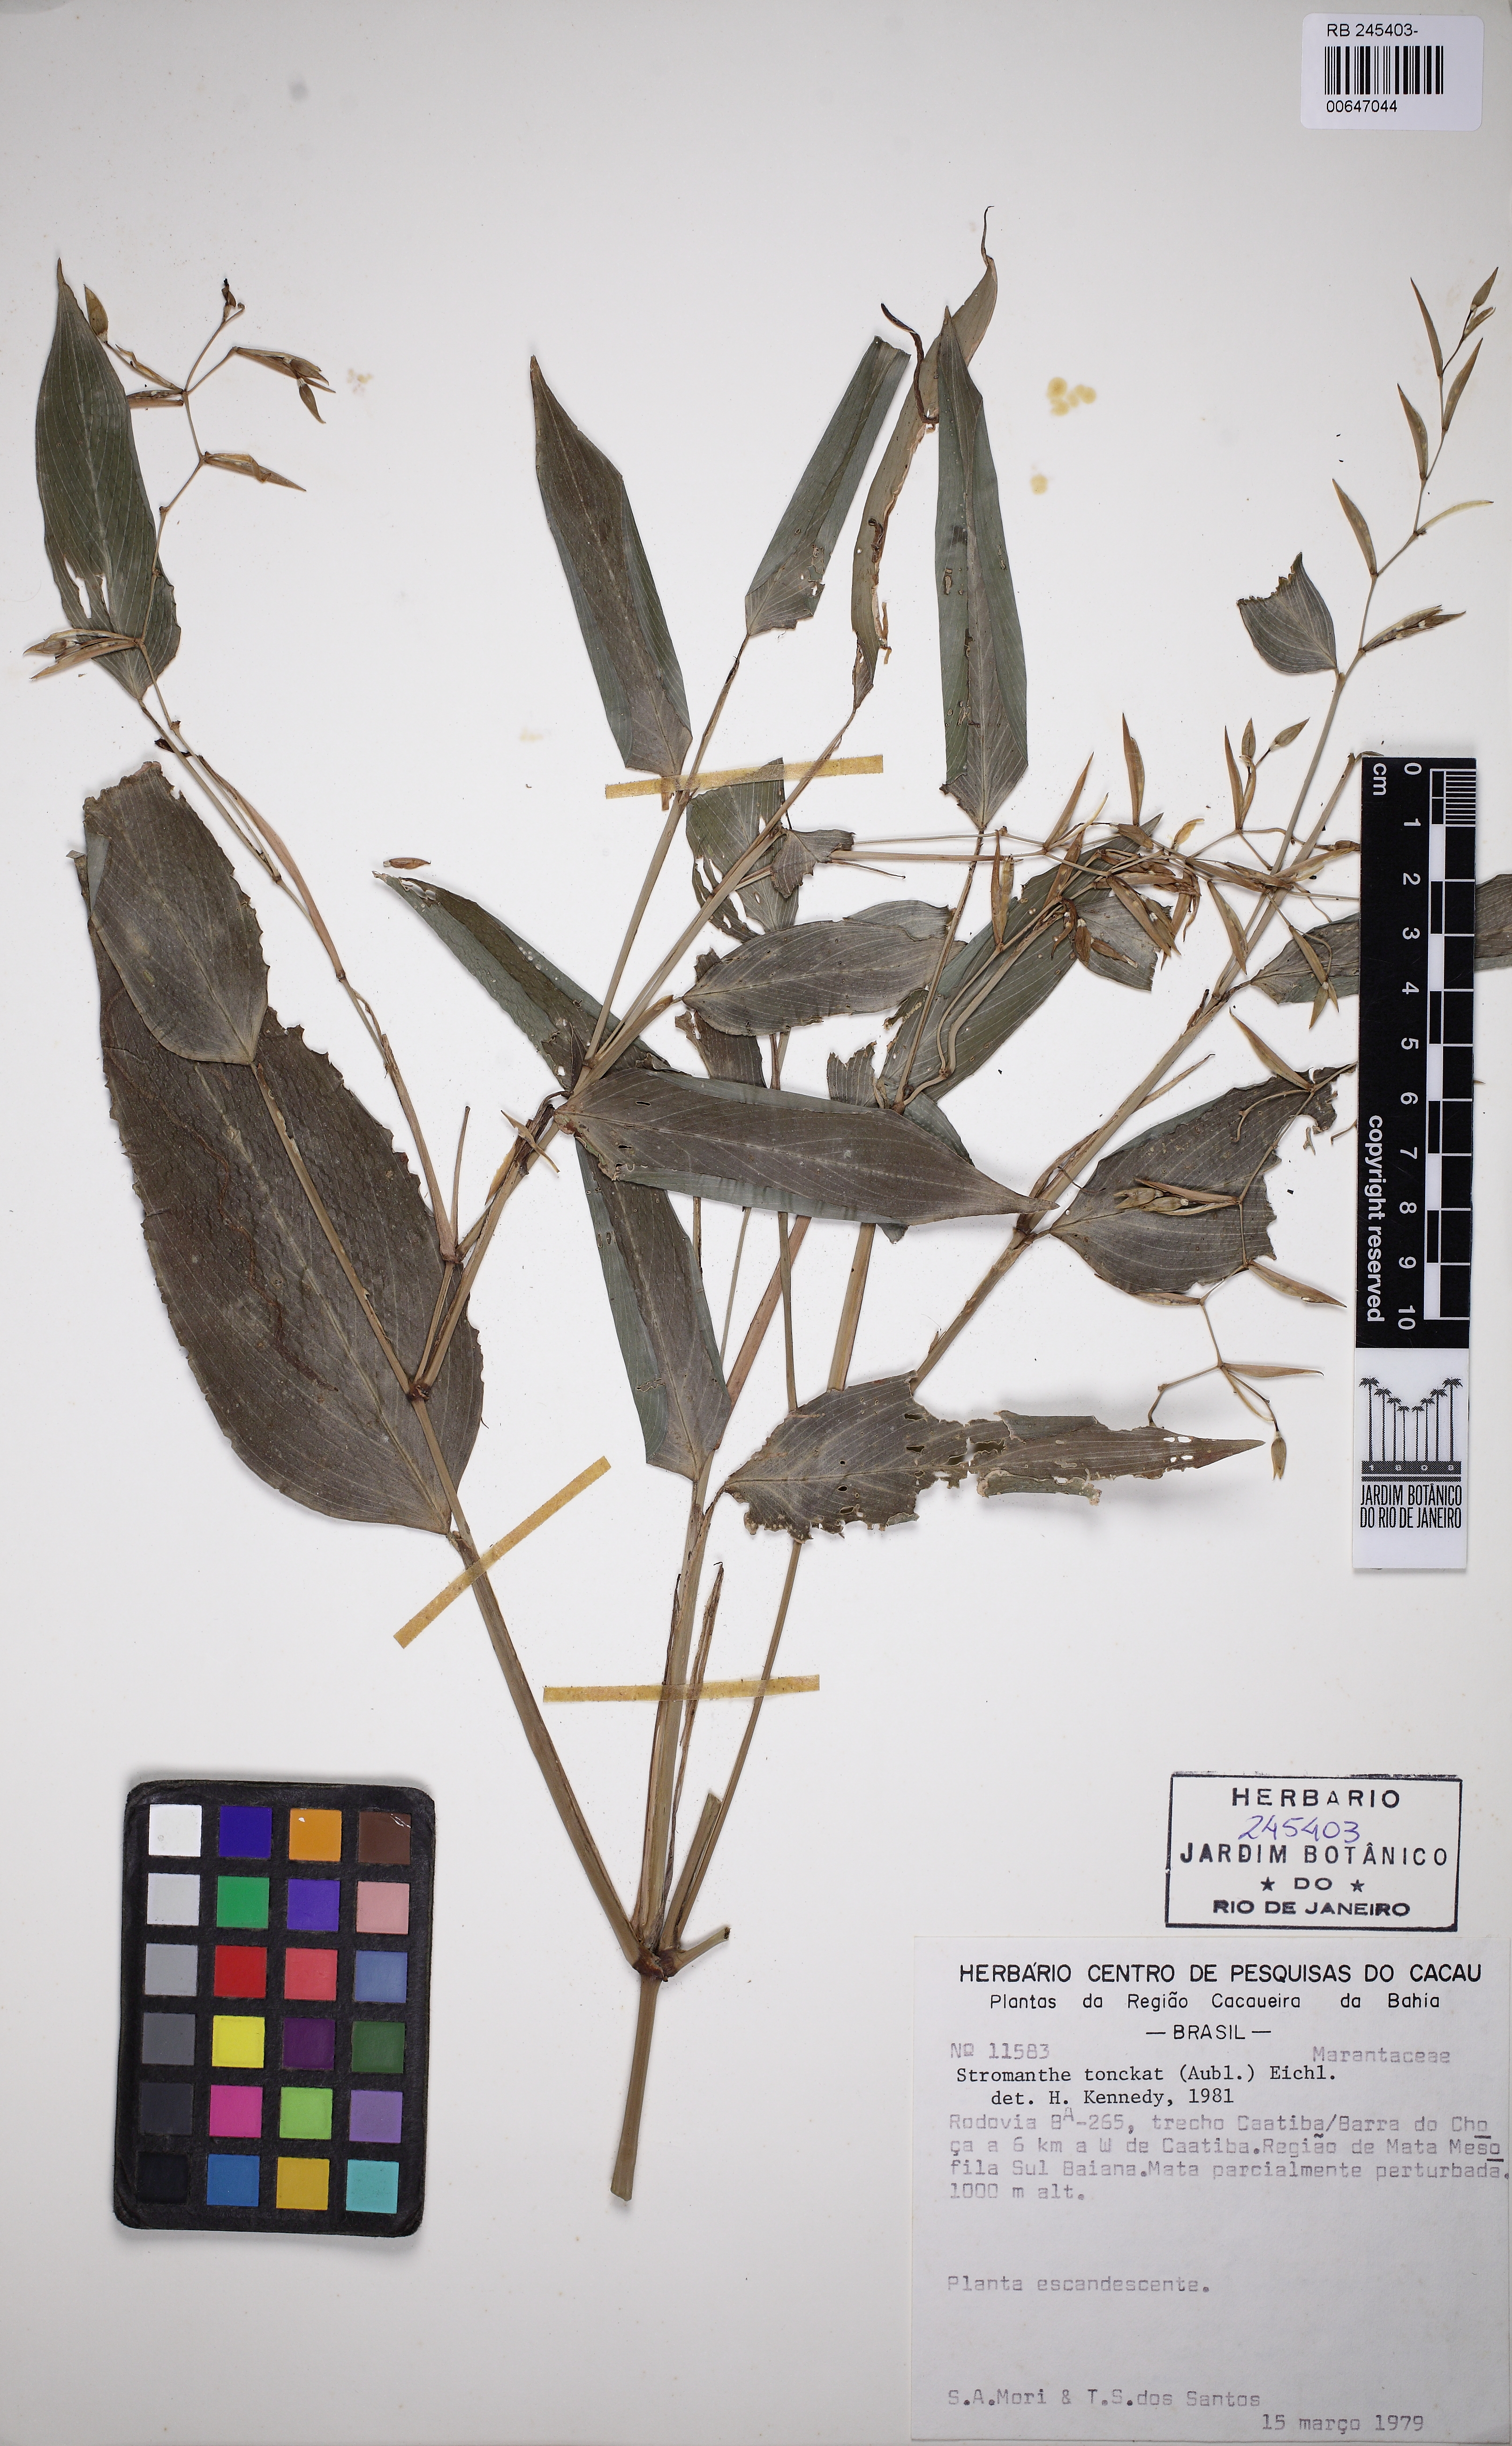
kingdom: Plantae
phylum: Tracheophyta
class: Liliopsida
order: Zingiberales
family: Marantaceae
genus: Stromanthe
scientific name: Stromanthe tonckat
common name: Stromanthe
